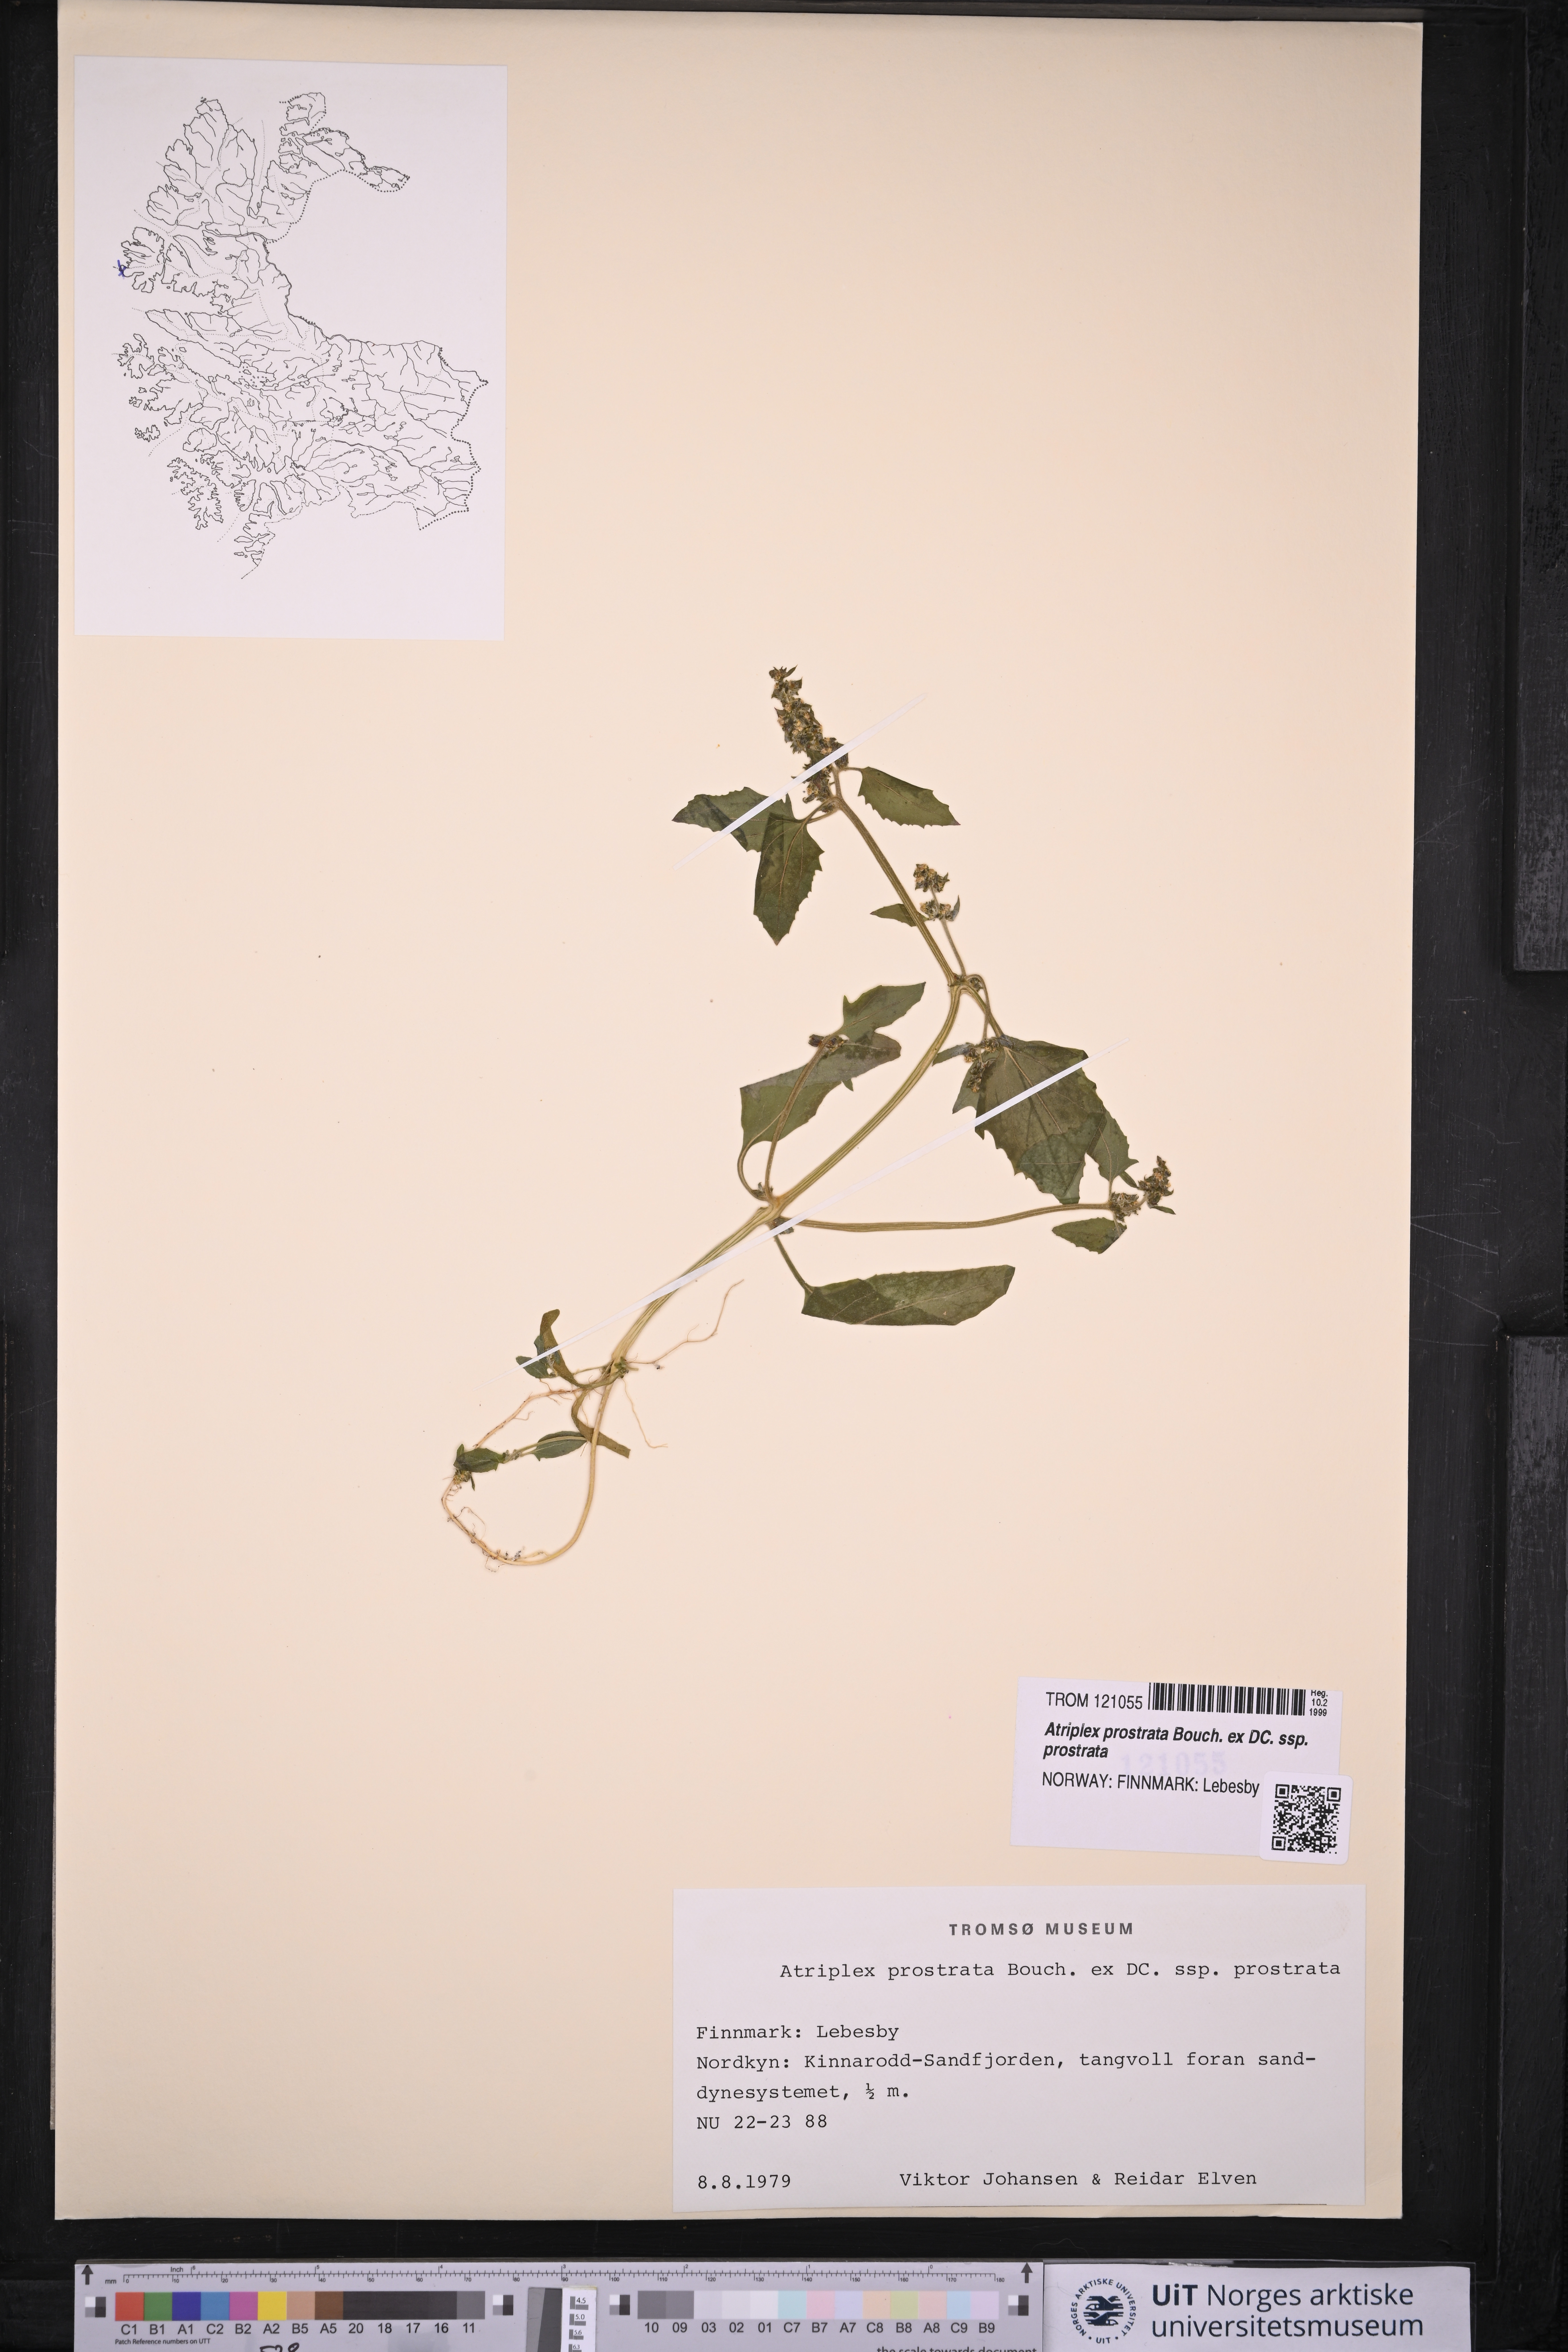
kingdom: Plantae
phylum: Tracheophyta
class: Magnoliopsida
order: Caryophyllales
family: Amaranthaceae
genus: Atriplex
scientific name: Atriplex prostrata
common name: Spear-leaved orache
